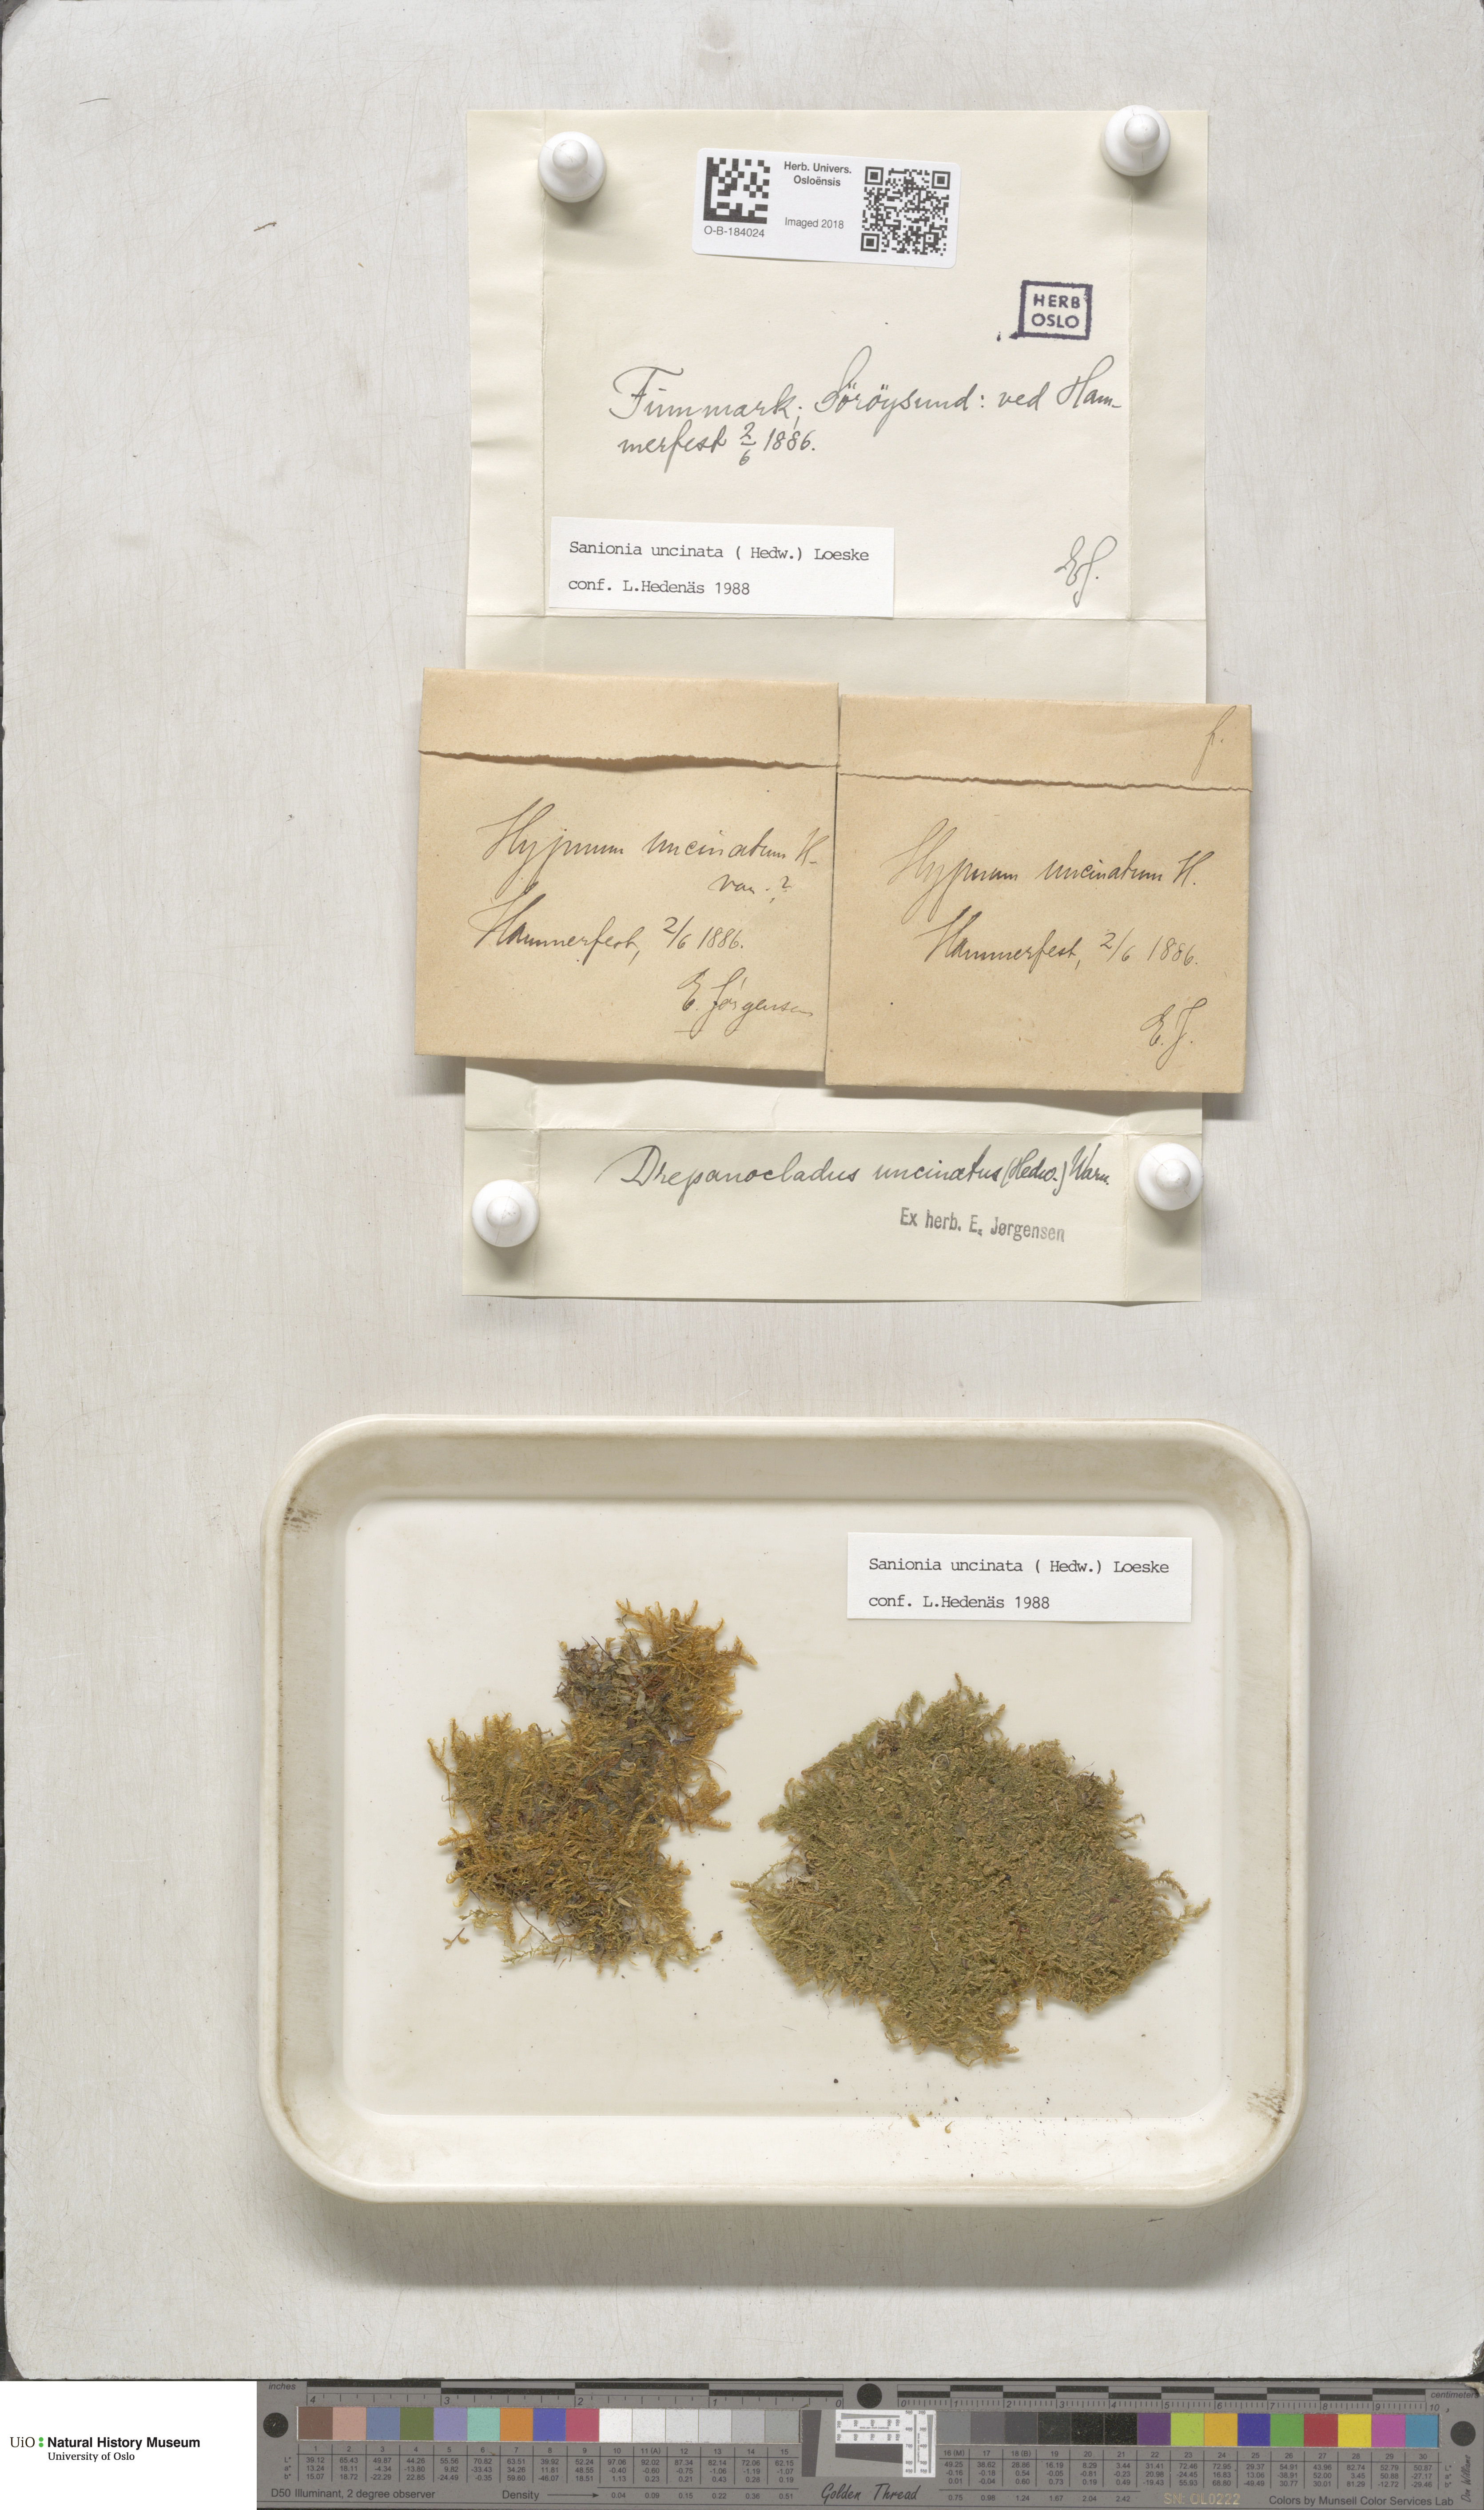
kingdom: Plantae
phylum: Bryophyta
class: Bryopsida
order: Hypnales
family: Scorpidiaceae
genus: Sanionia
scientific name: Sanionia uncinata
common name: Sickle moss
